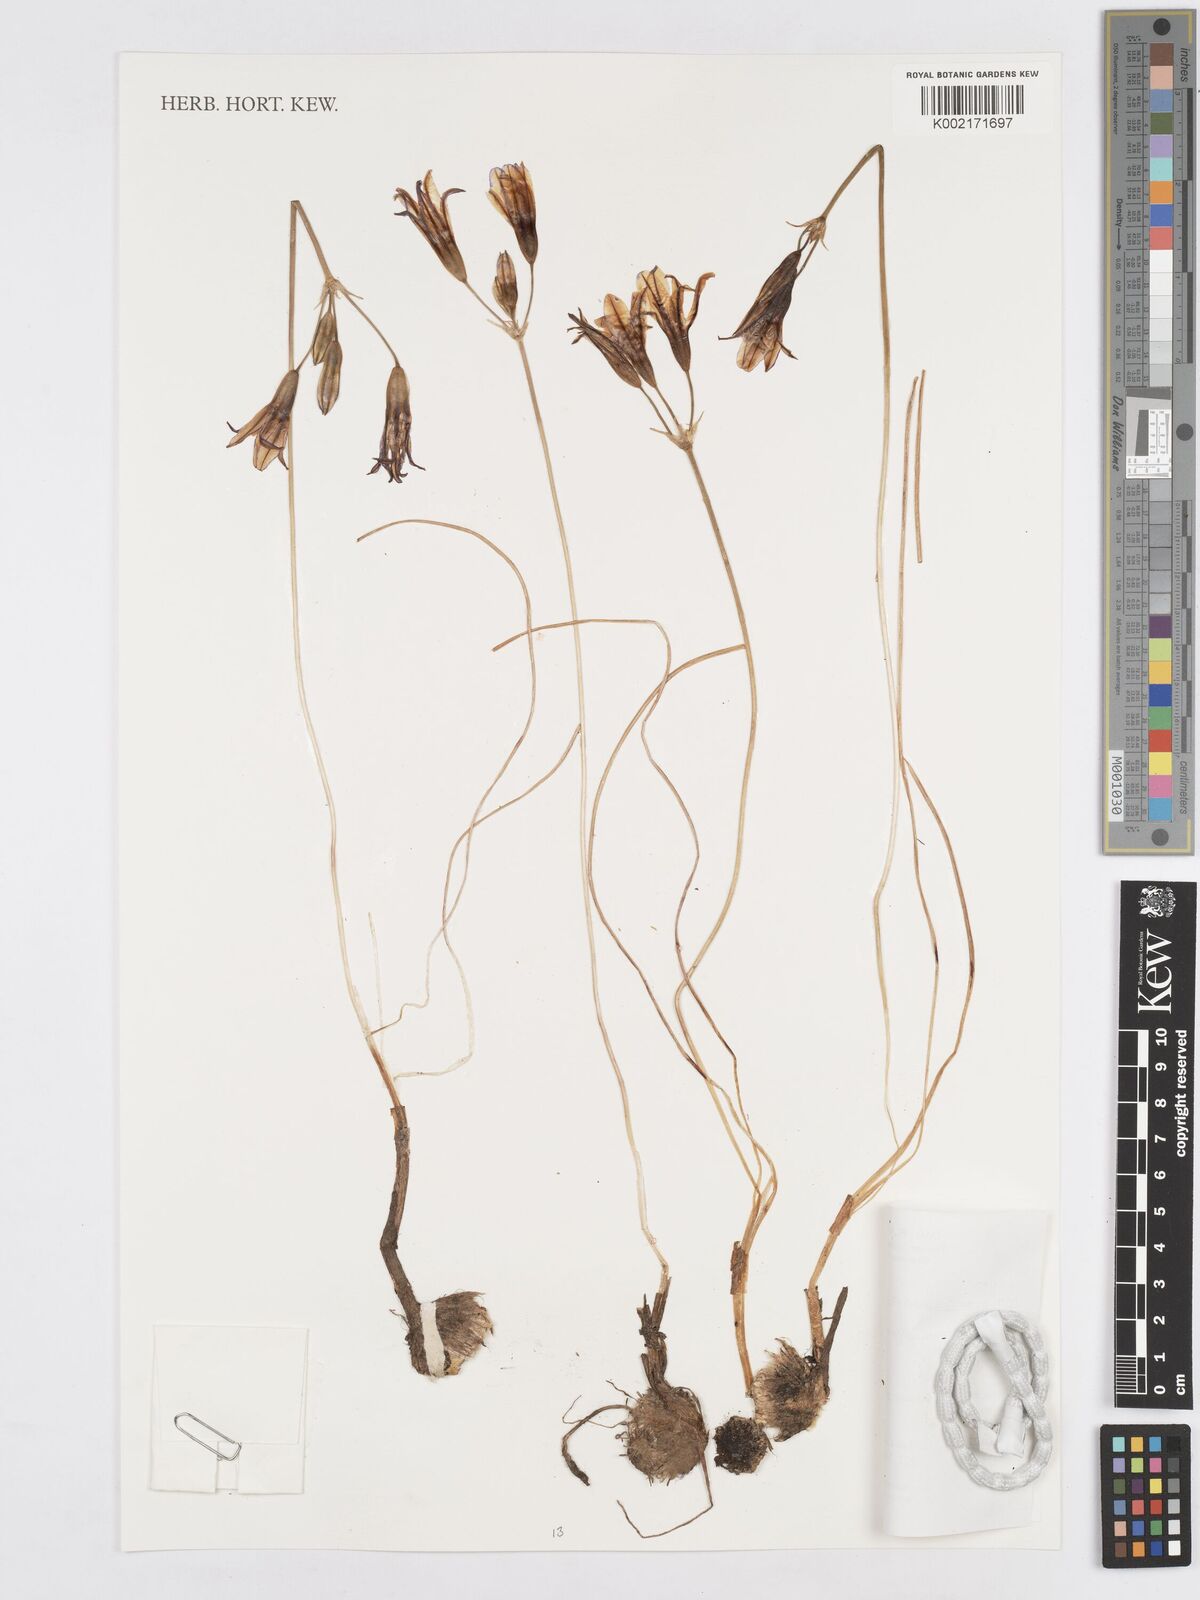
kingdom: Plantae
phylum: Tracheophyta
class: Liliopsida
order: Asparagales
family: Asparagaceae
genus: Triteleia
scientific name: Triteleia grandiflora
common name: Wild hyacinth
